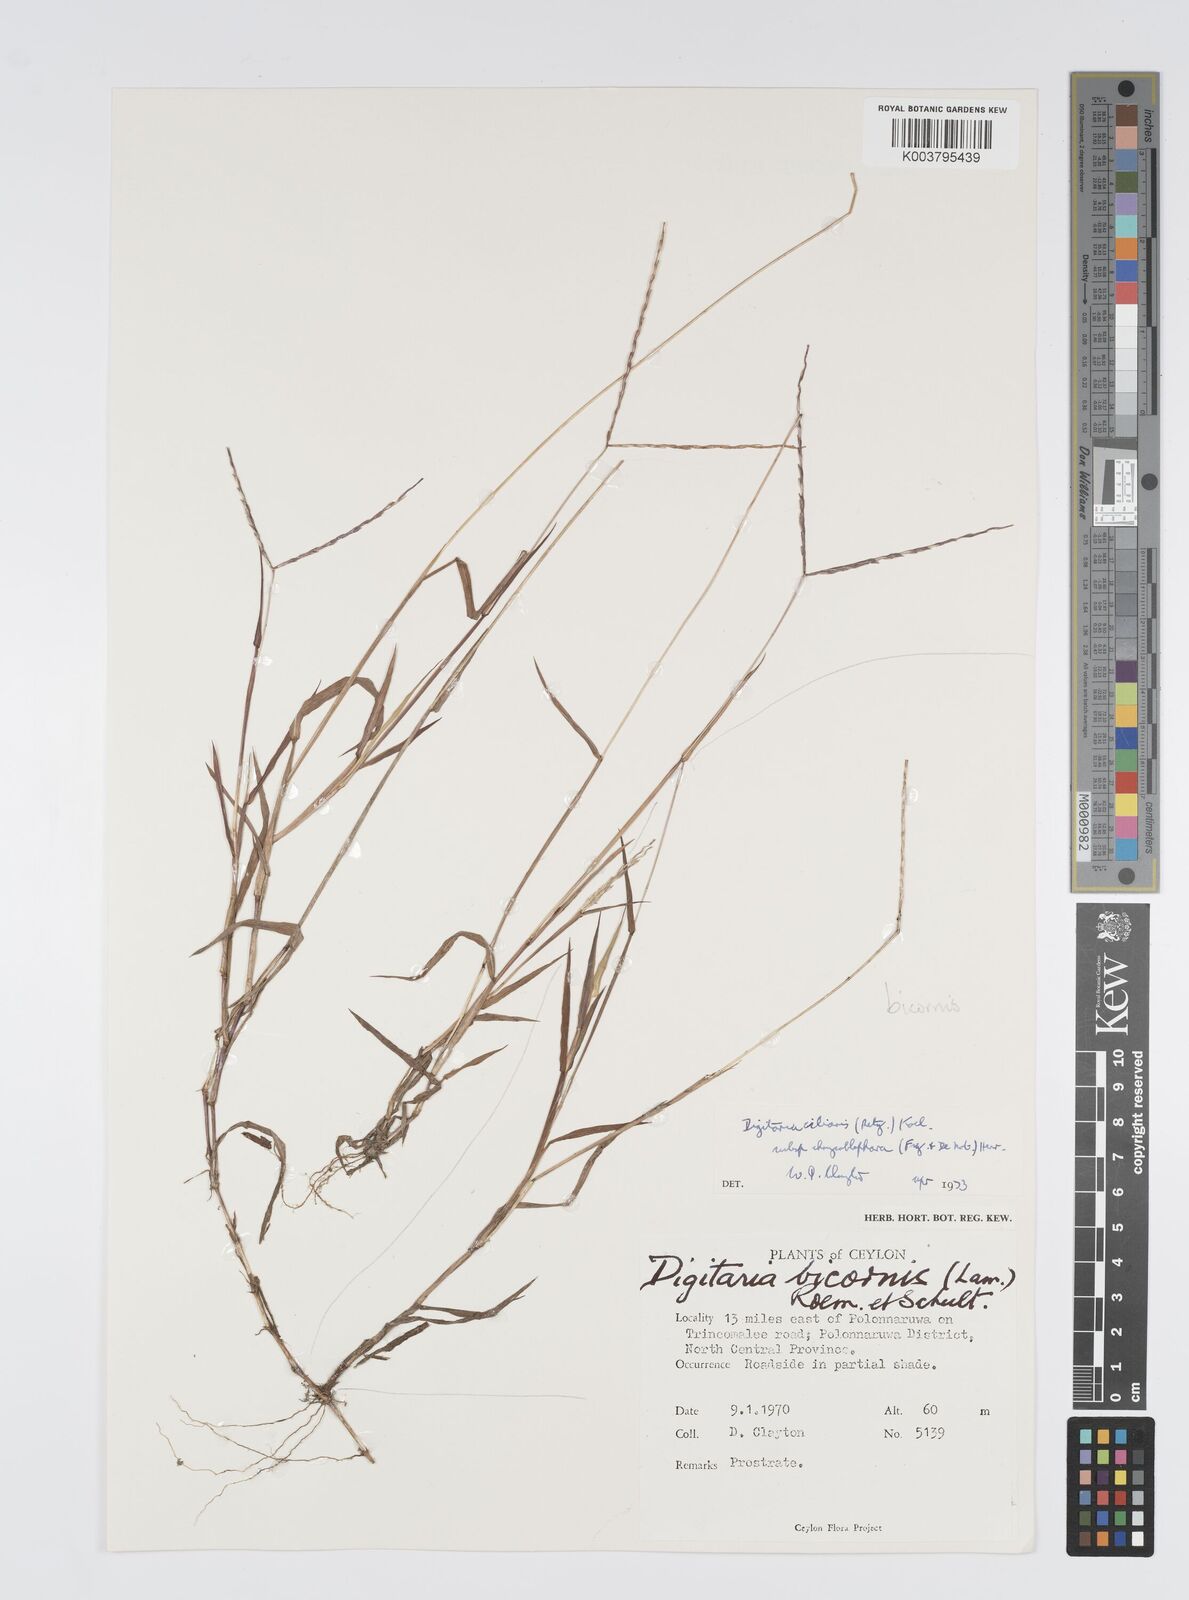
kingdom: Plantae
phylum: Tracheophyta
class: Liliopsida
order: Poales
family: Poaceae
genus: Digitaria
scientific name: Digitaria bicornis
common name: Asian crabgrass
